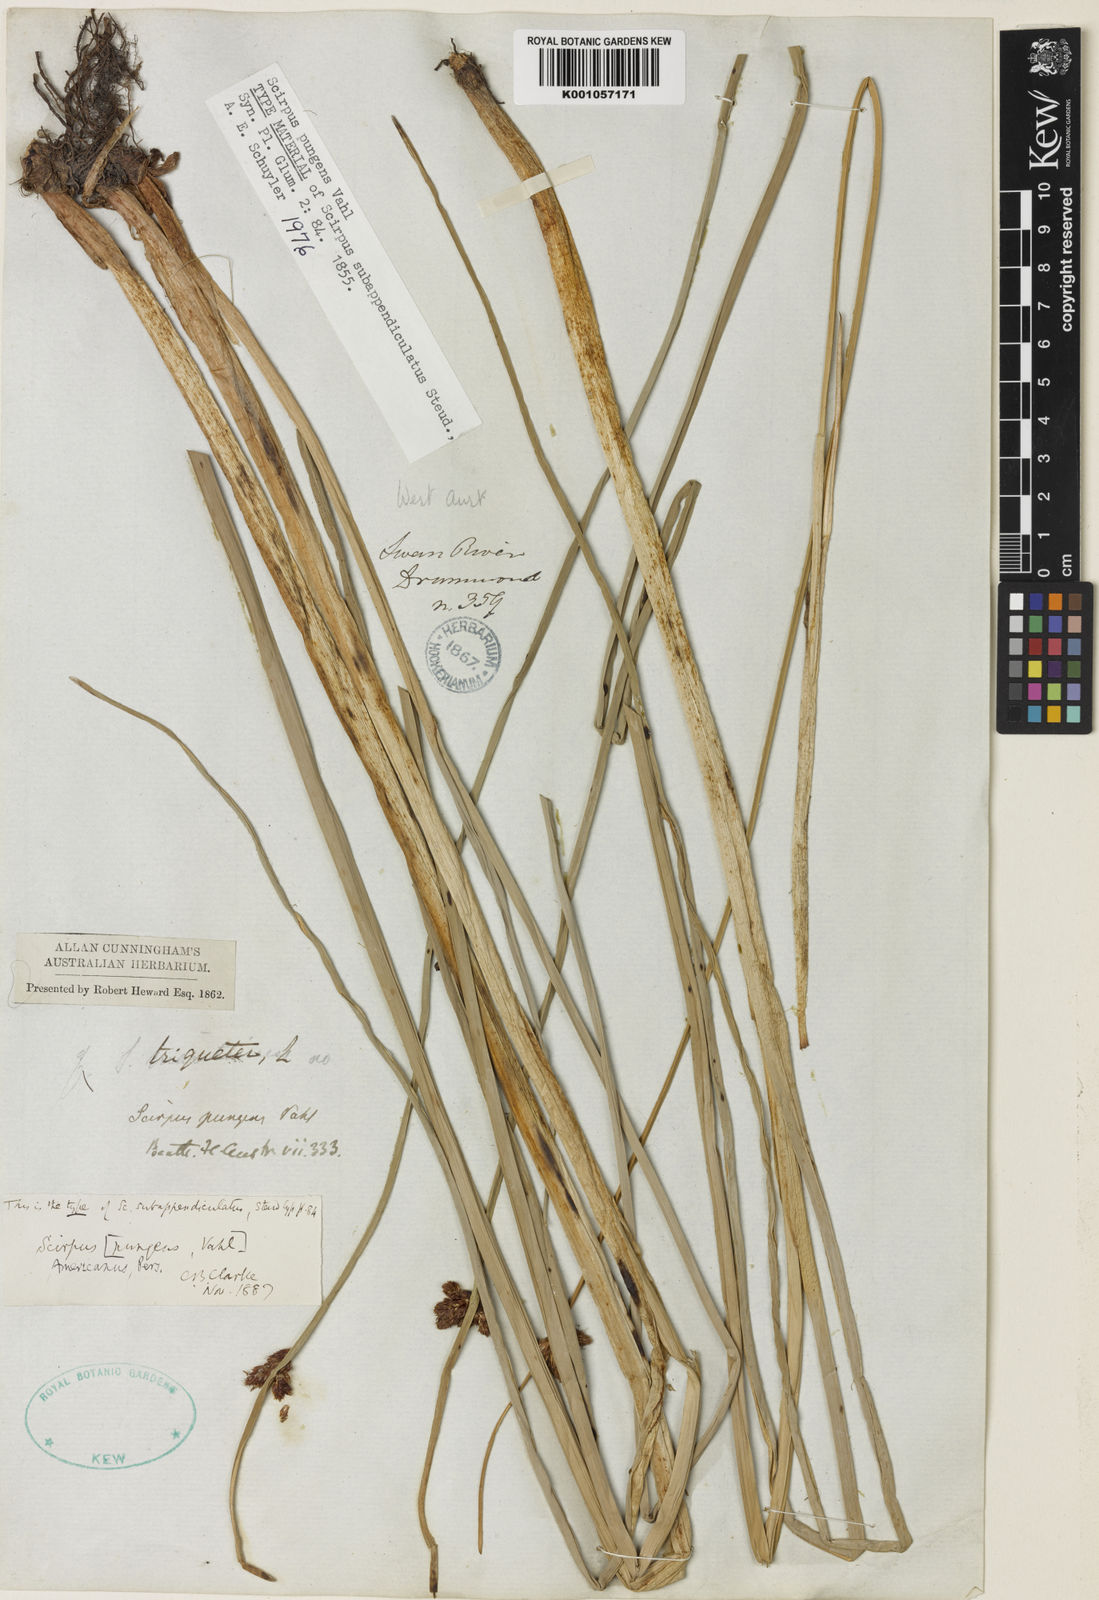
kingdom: Plantae
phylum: Tracheophyta
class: Liliopsida
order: Poales
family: Cyperaceae
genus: Schoenoplectus
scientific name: Schoenoplectus pungens
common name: Sharp club-rush
